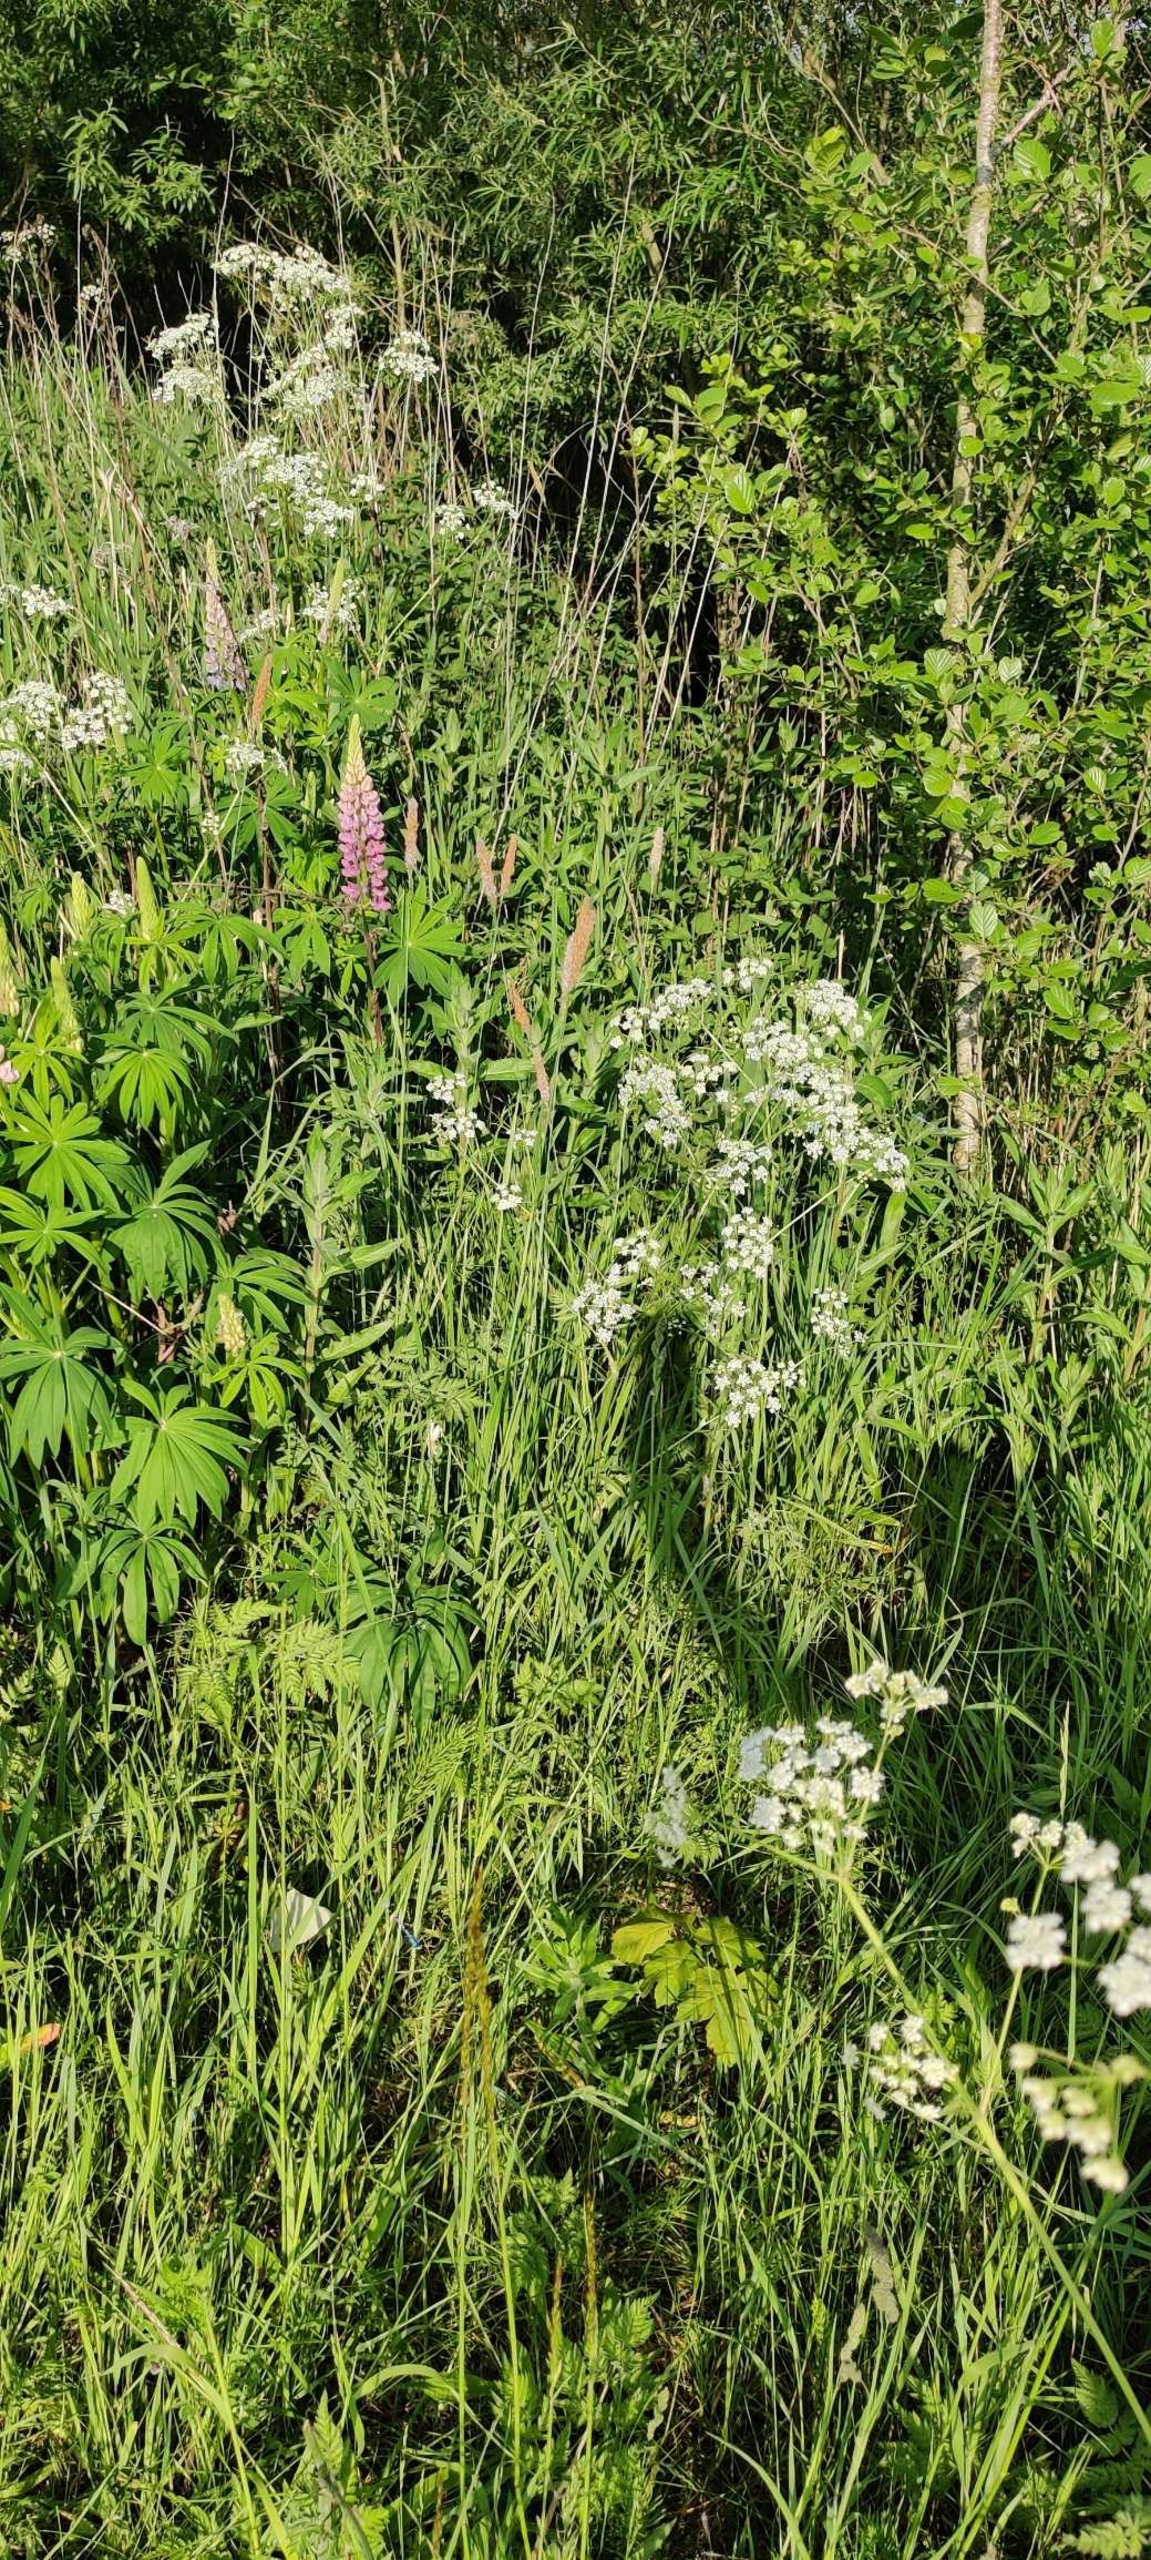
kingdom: Plantae
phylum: Tracheophyta
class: Magnoliopsida
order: Fabales
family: Fabaceae
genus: Lupinus
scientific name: Lupinus polyphyllus
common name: Mangebladet lupin
